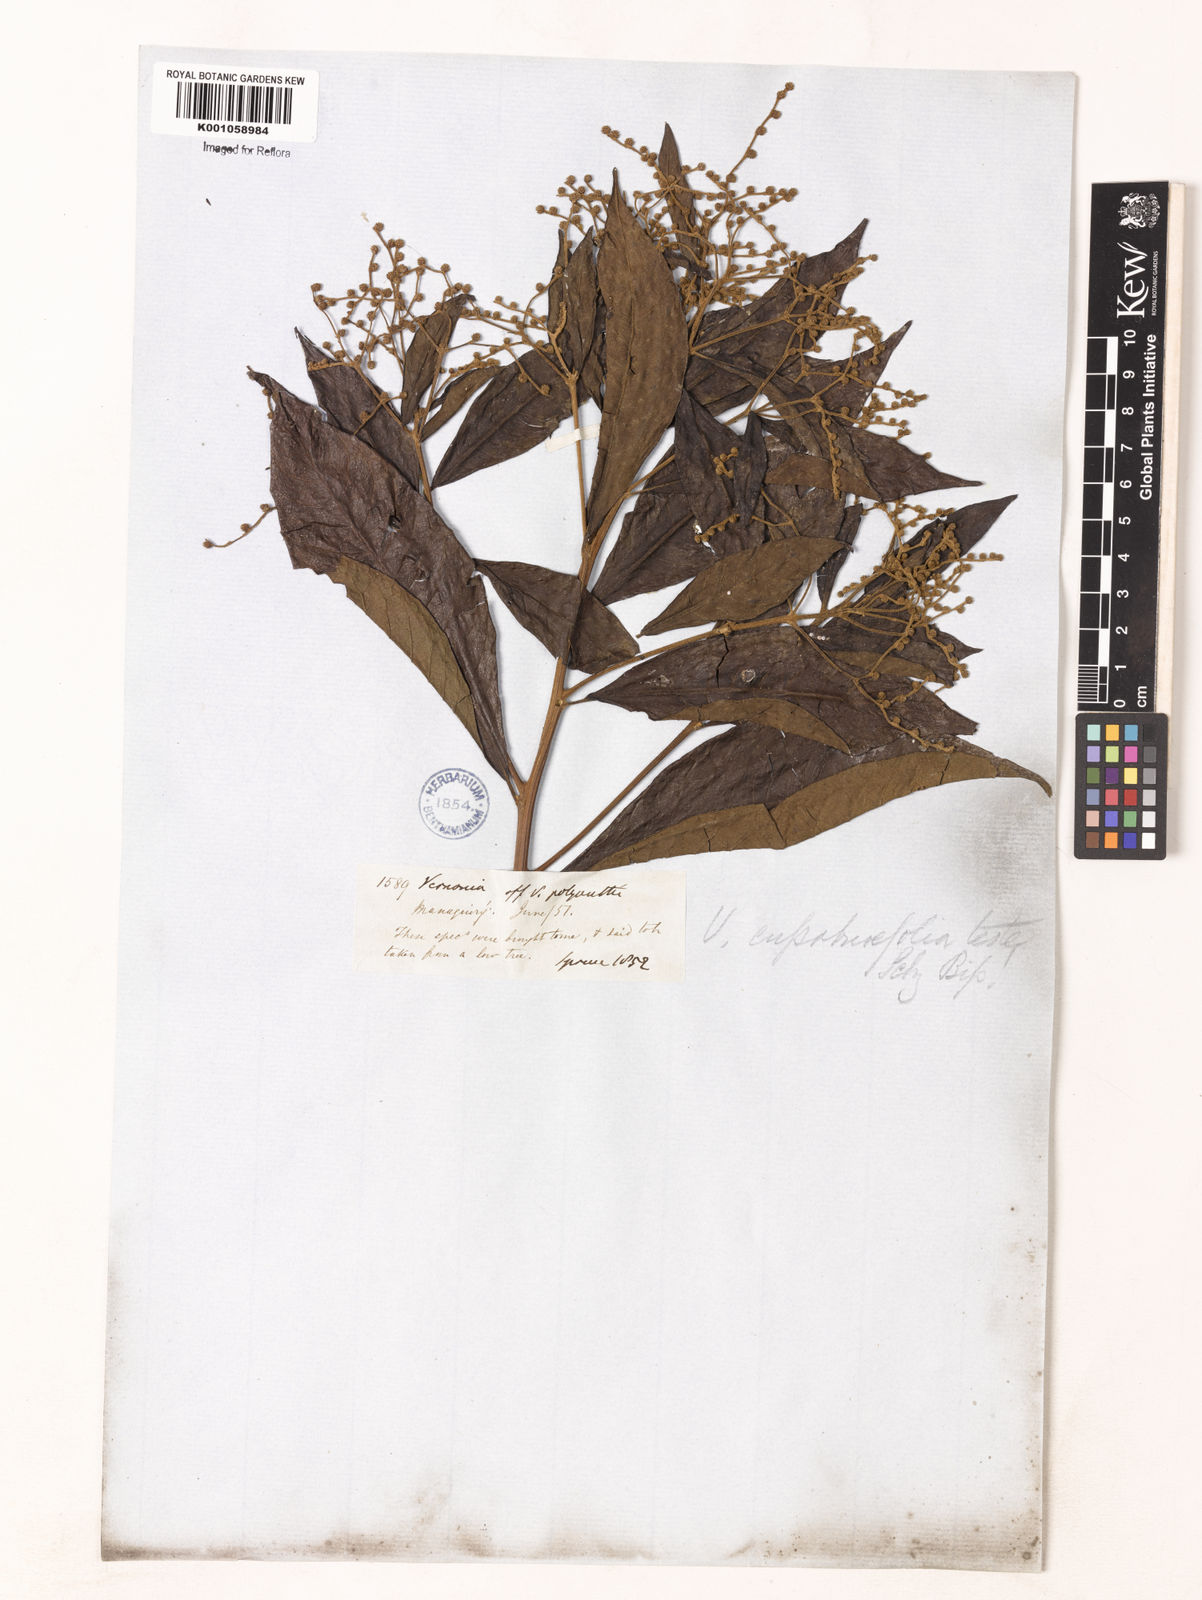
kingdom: Plantae
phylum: Tracheophyta
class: Magnoliopsida
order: Asterales
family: Asteraceae
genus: Vernonanthura
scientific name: Vernonanthura polyanthes
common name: Tree aster
